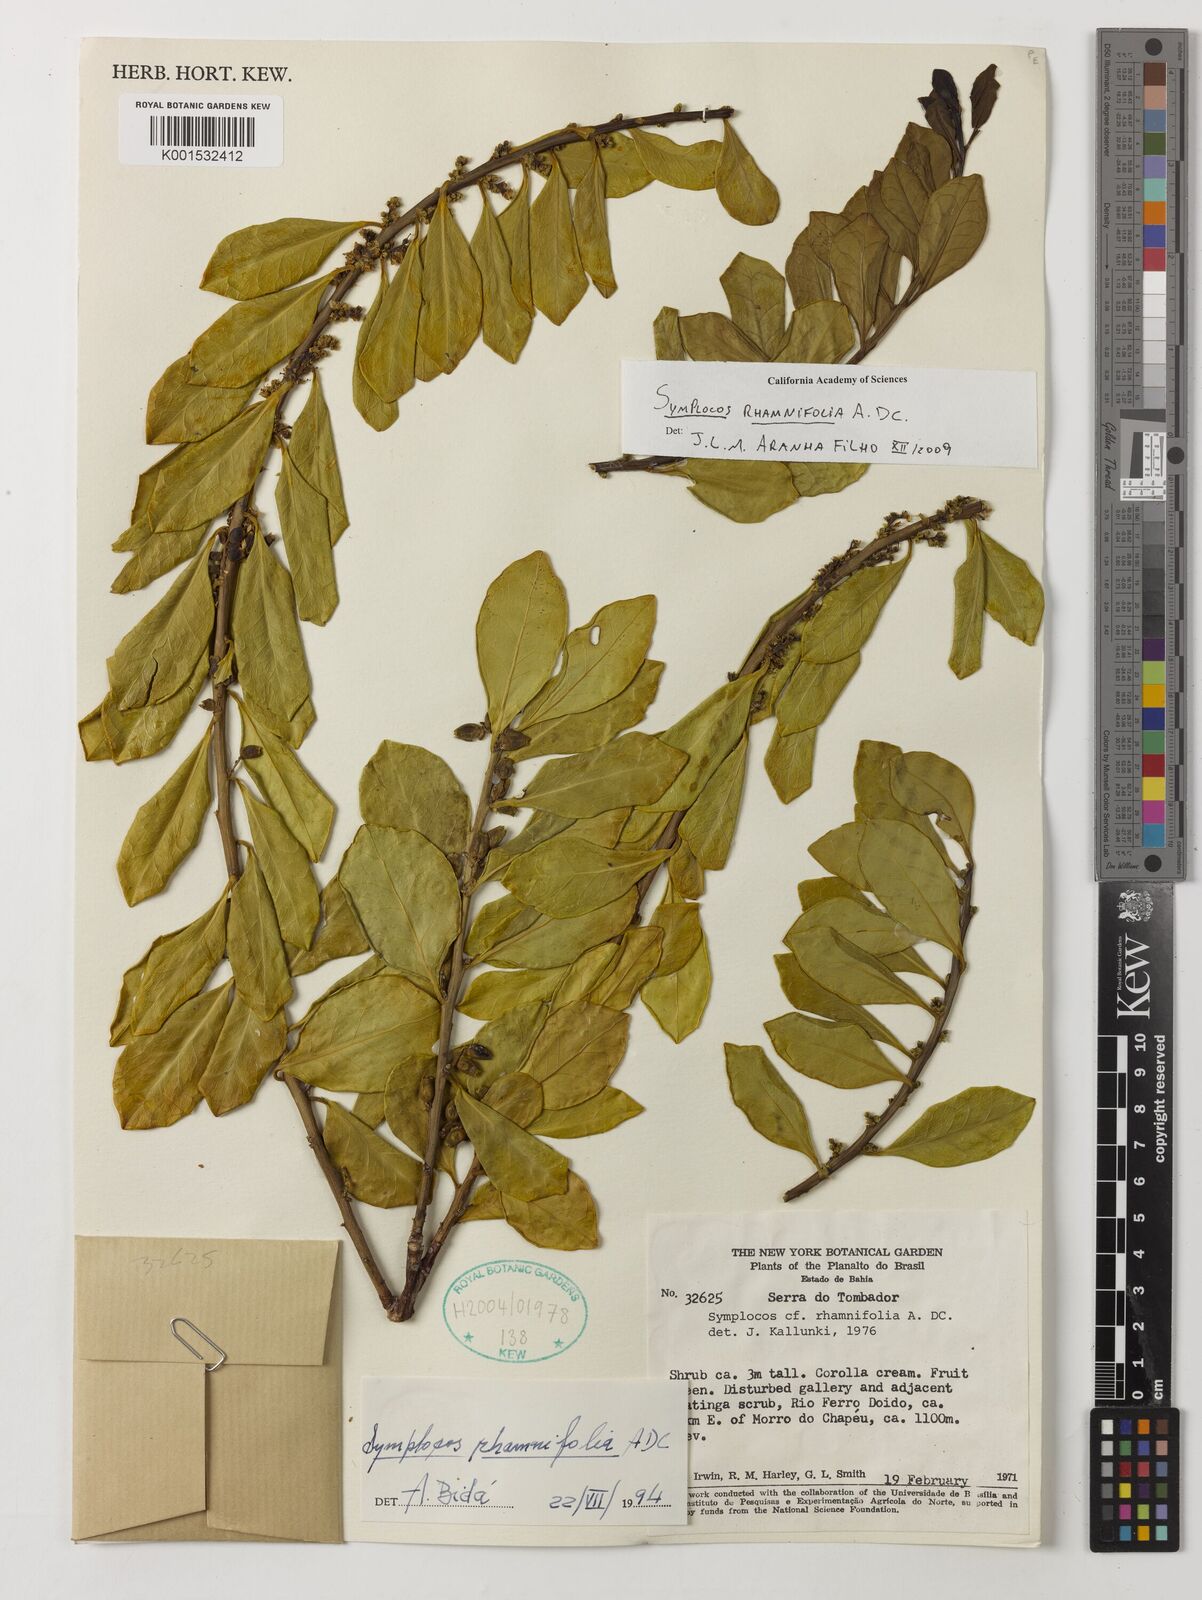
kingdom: Plantae
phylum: Tracheophyta
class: Magnoliopsida
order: Ericales
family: Symplocaceae
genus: Symplocos
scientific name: Symplocos rhamnifolia
